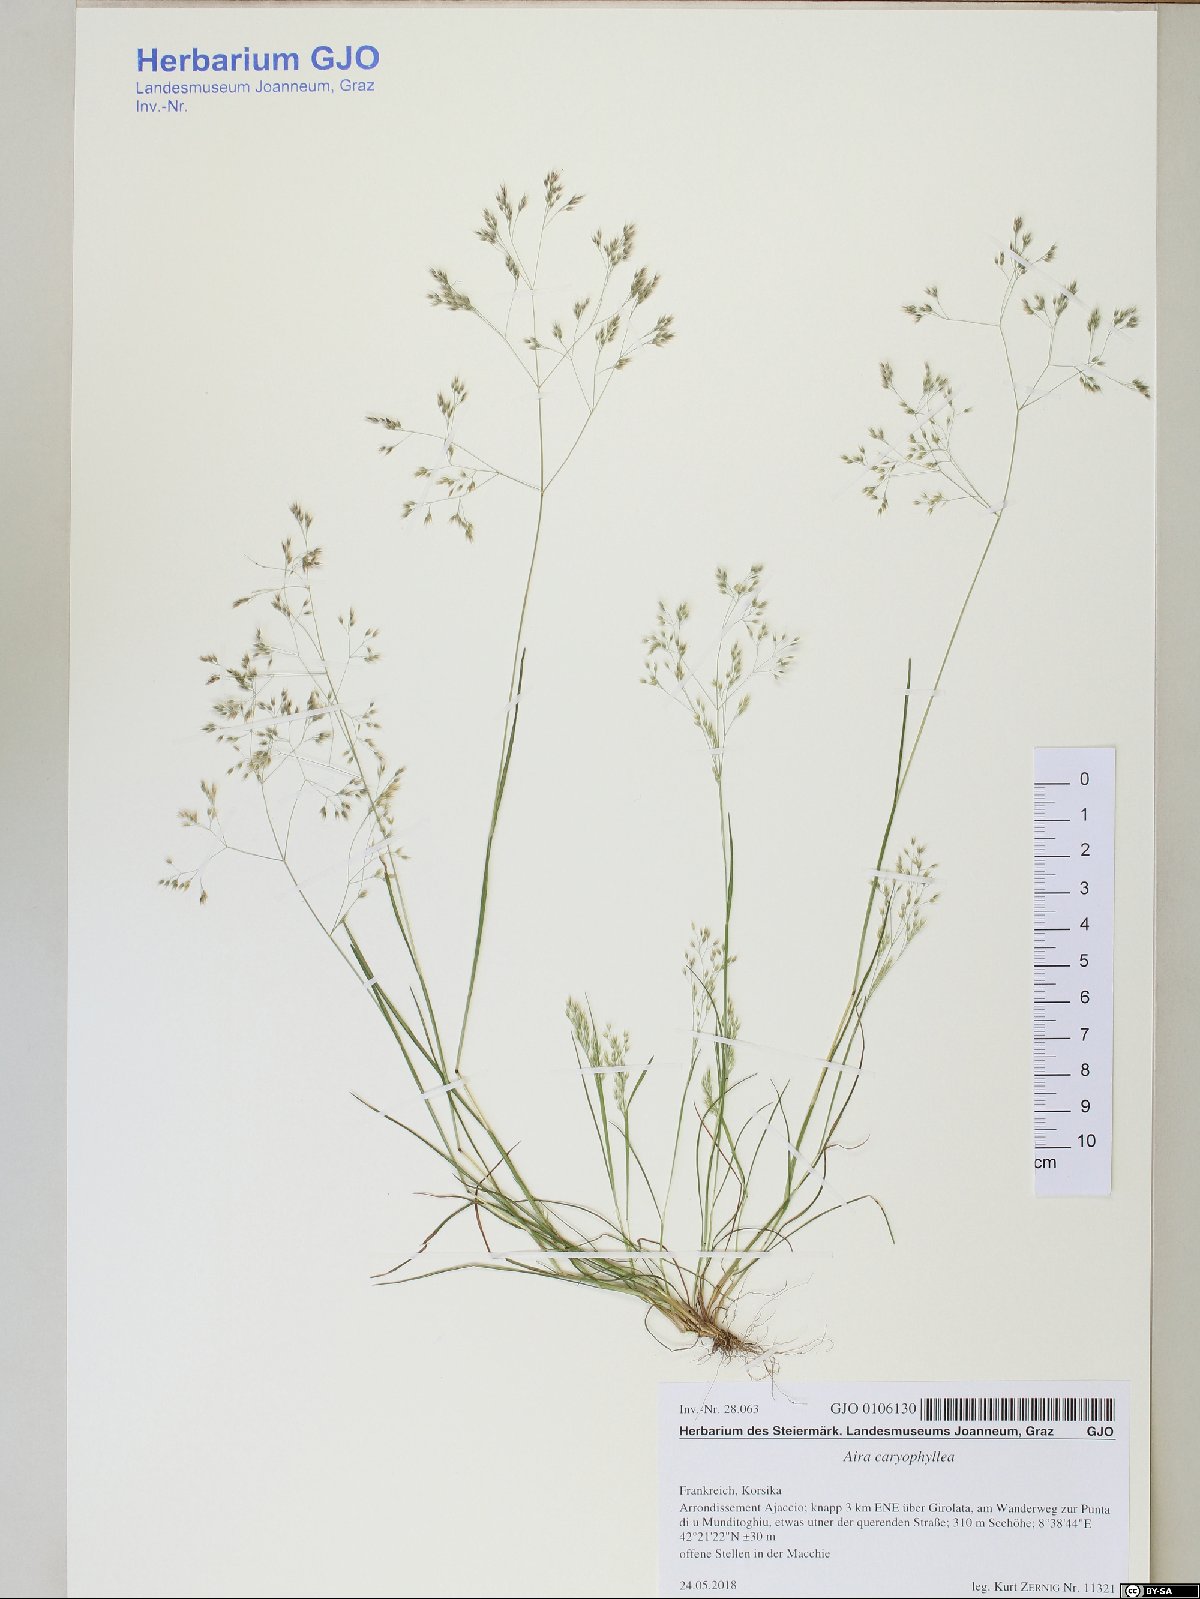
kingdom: Plantae
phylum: Tracheophyta
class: Liliopsida
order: Poales
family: Poaceae
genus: Aira
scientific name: Aira caryophyllea
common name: Silver hairgrass
